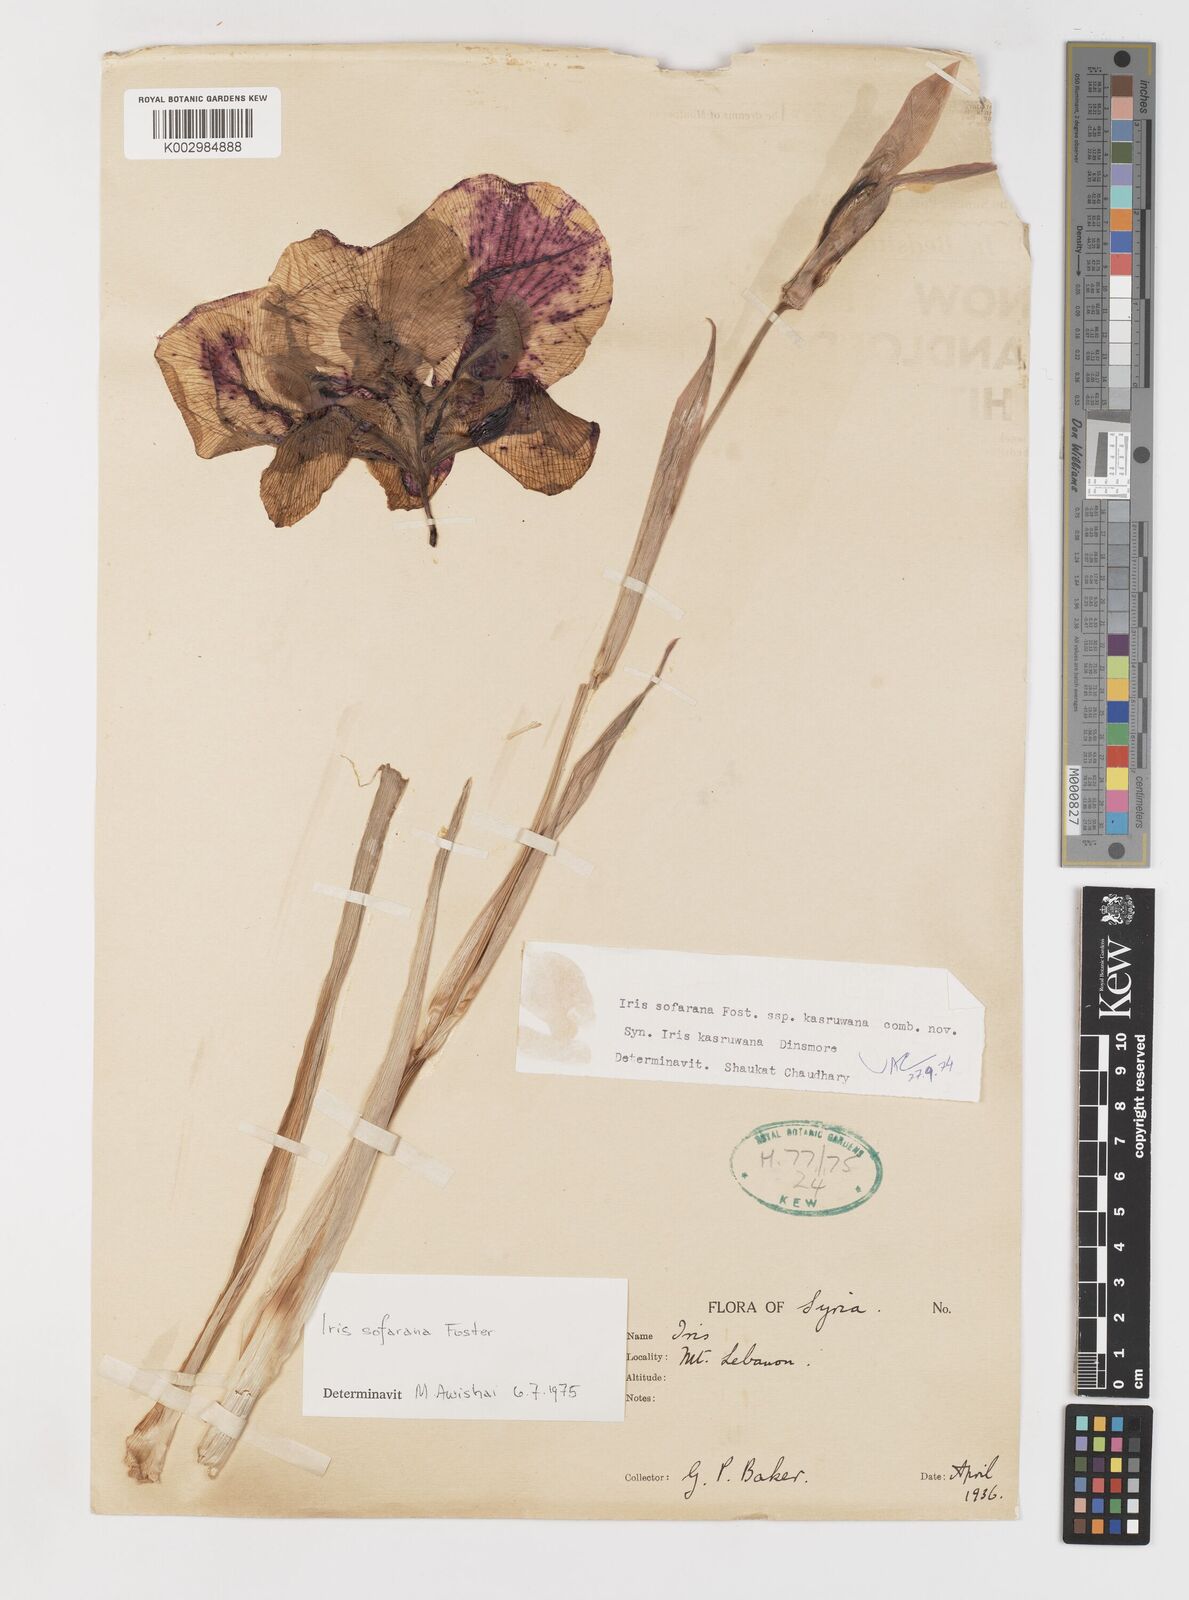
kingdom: Plantae
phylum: Tracheophyta
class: Liliopsida
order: Asparagales
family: Iridaceae
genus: Iris
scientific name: Iris susiana
